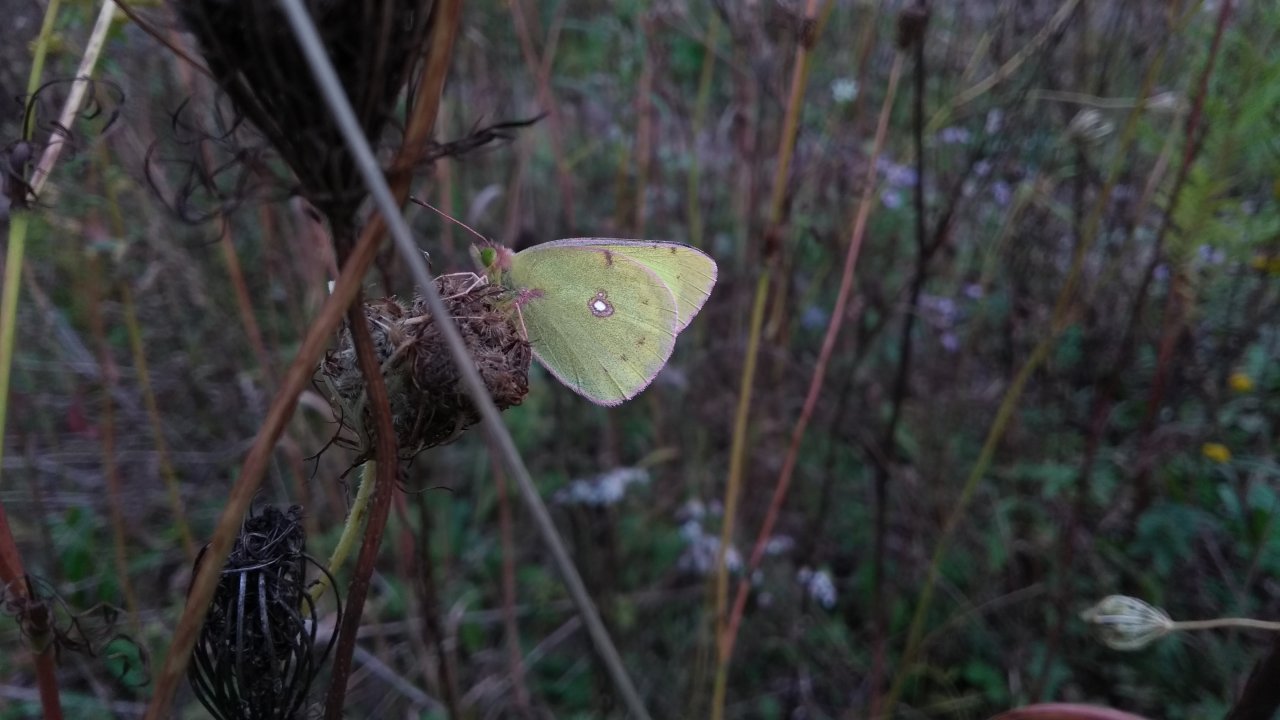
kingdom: Animalia
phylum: Arthropoda
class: Insecta
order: Lepidoptera
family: Pieridae
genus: Colias
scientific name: Colias philodice
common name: Clouded Sulphur
